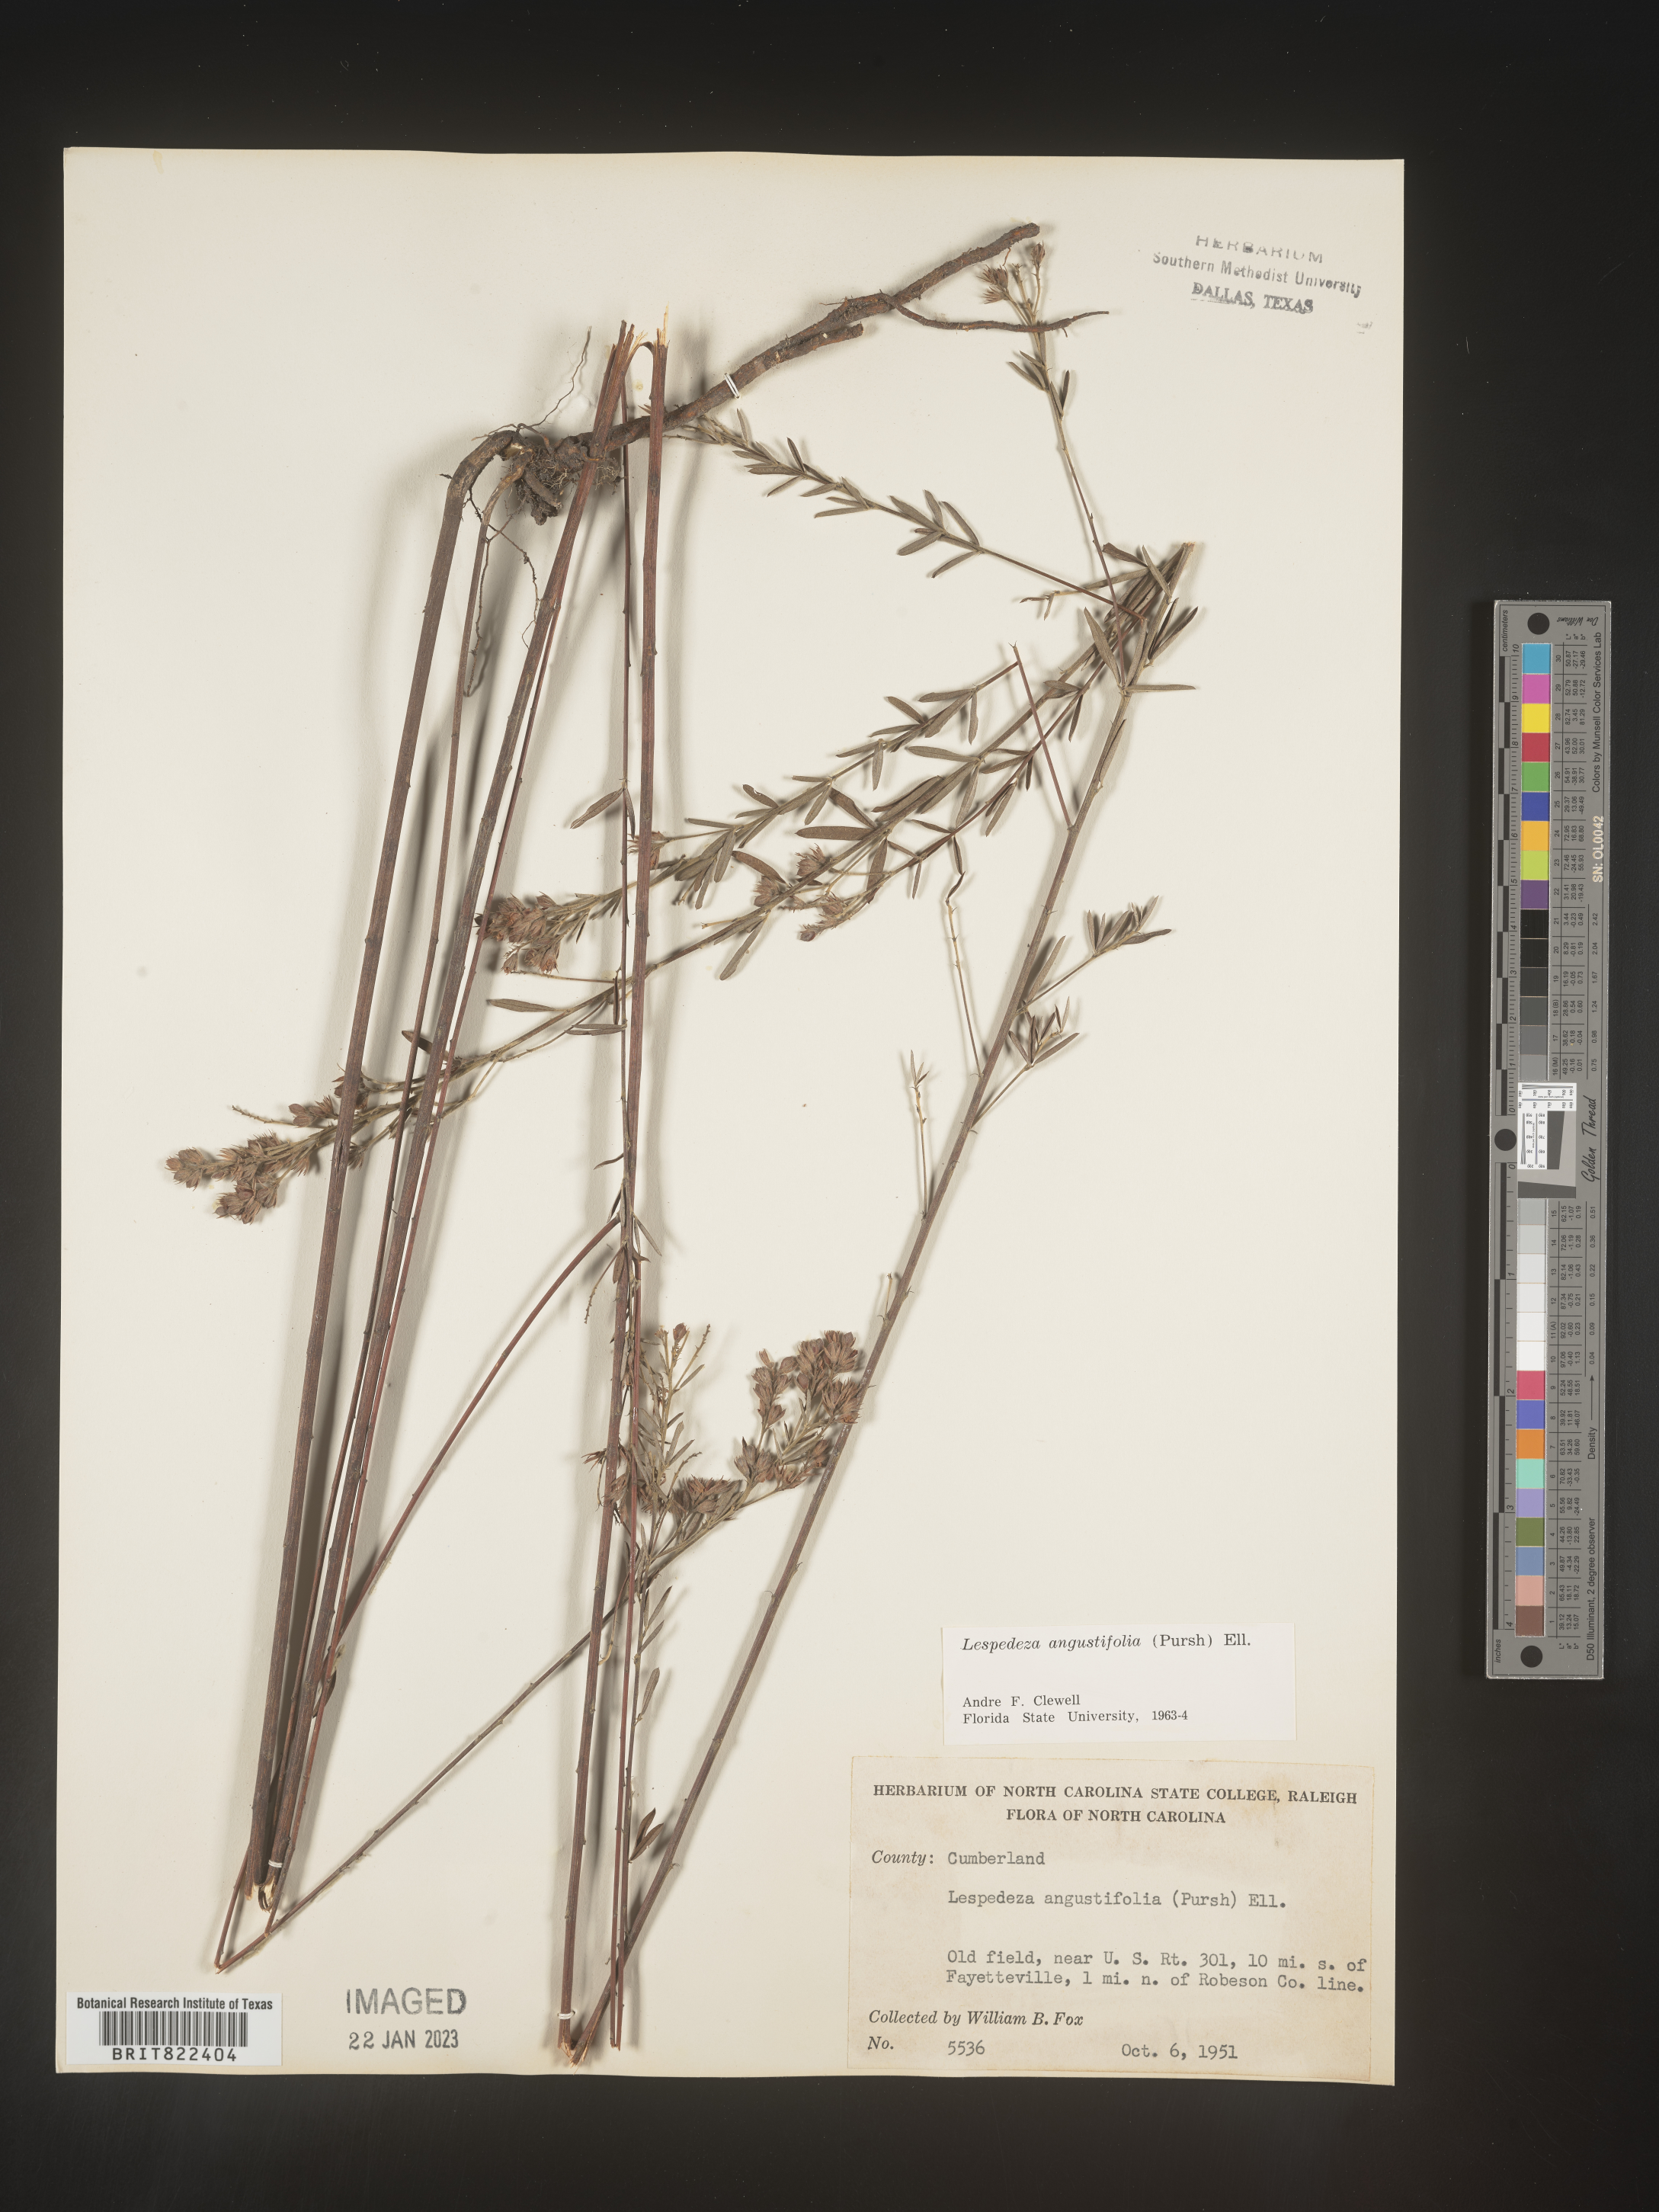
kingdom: Plantae
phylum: Tracheophyta
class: Magnoliopsida
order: Fabales
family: Fabaceae
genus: Lespedeza
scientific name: Lespedeza
